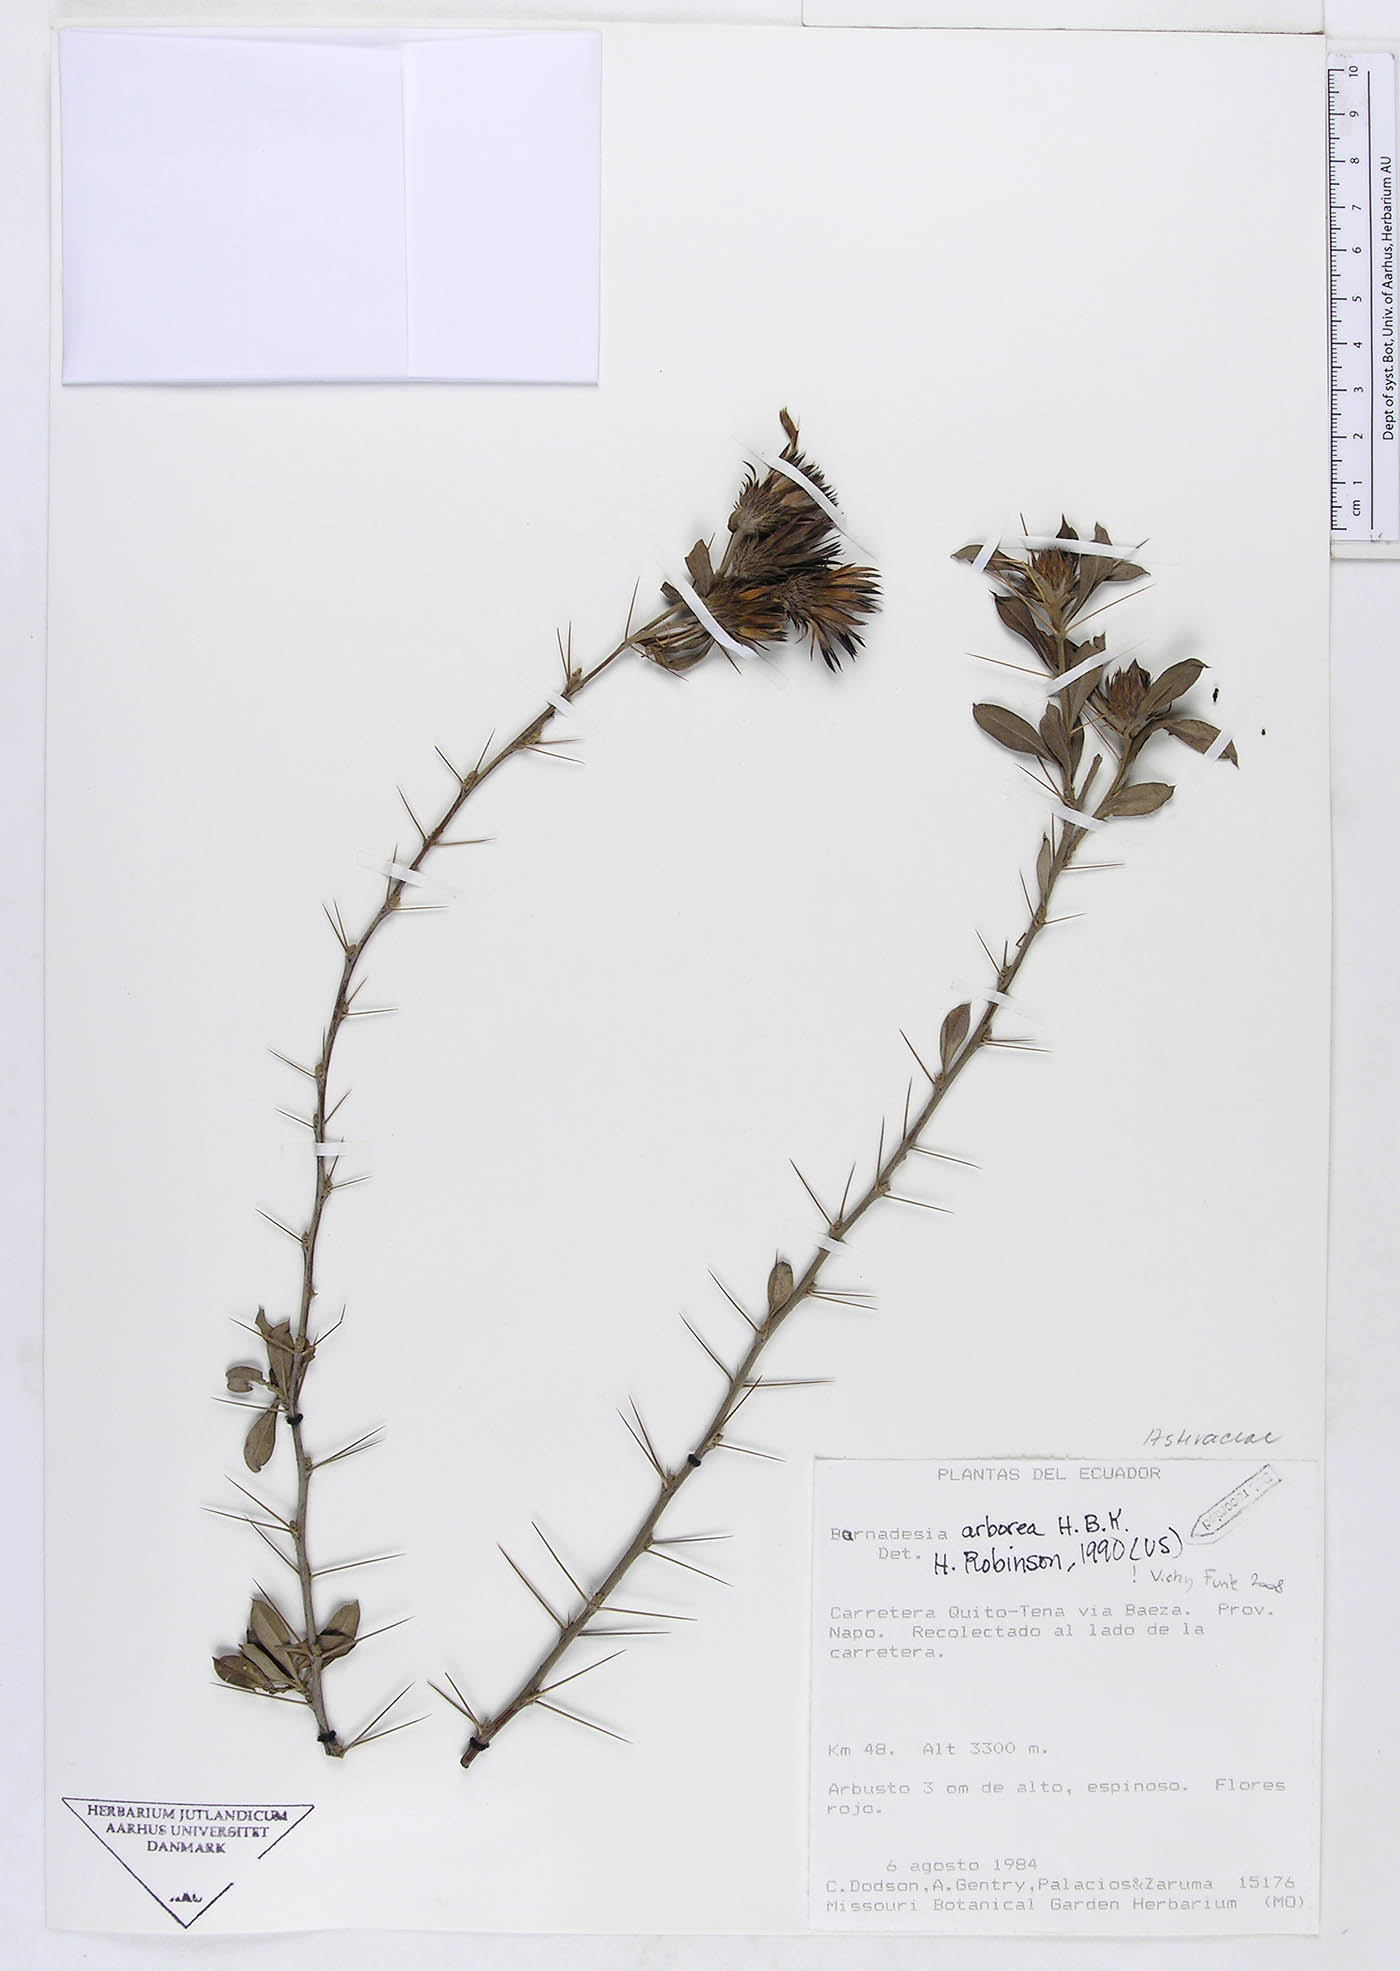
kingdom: Plantae
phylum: Tracheophyta
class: Magnoliopsida
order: Asterales
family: Asteraceae
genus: Barnadesia
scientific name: Barnadesia arborea
